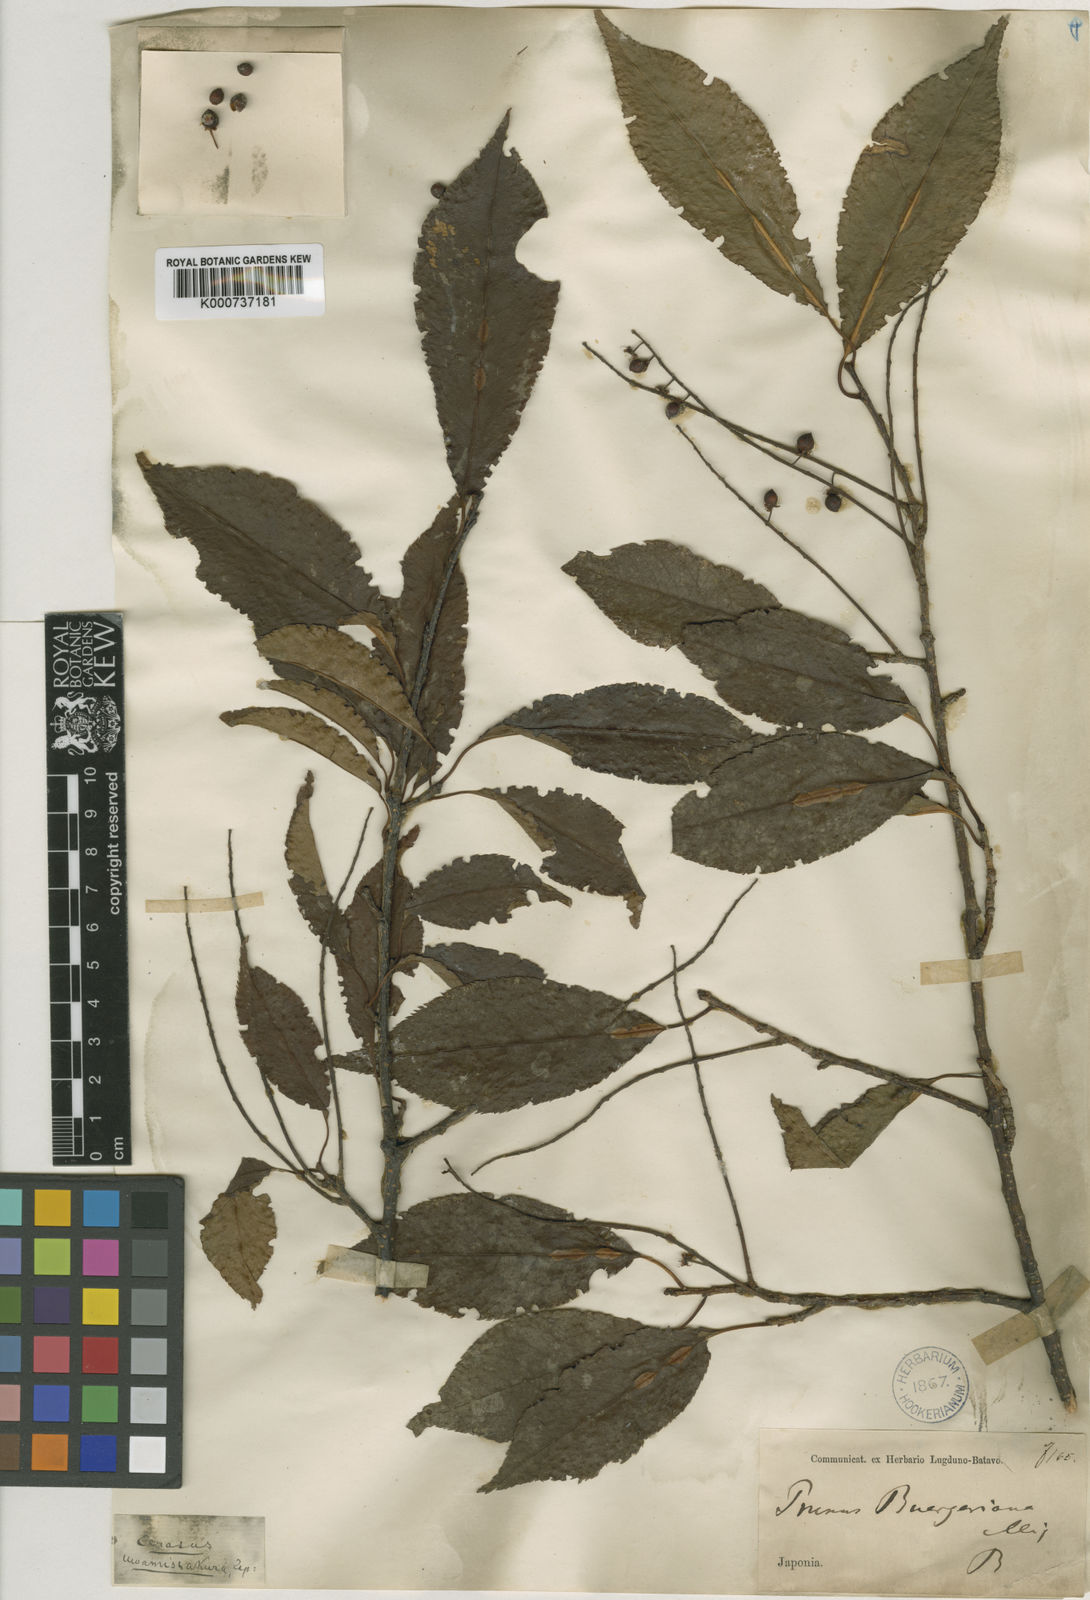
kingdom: Plantae
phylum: Tracheophyta
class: Magnoliopsida
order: Rosales
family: Rosaceae
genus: Prunus
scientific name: Prunus buergeriana
